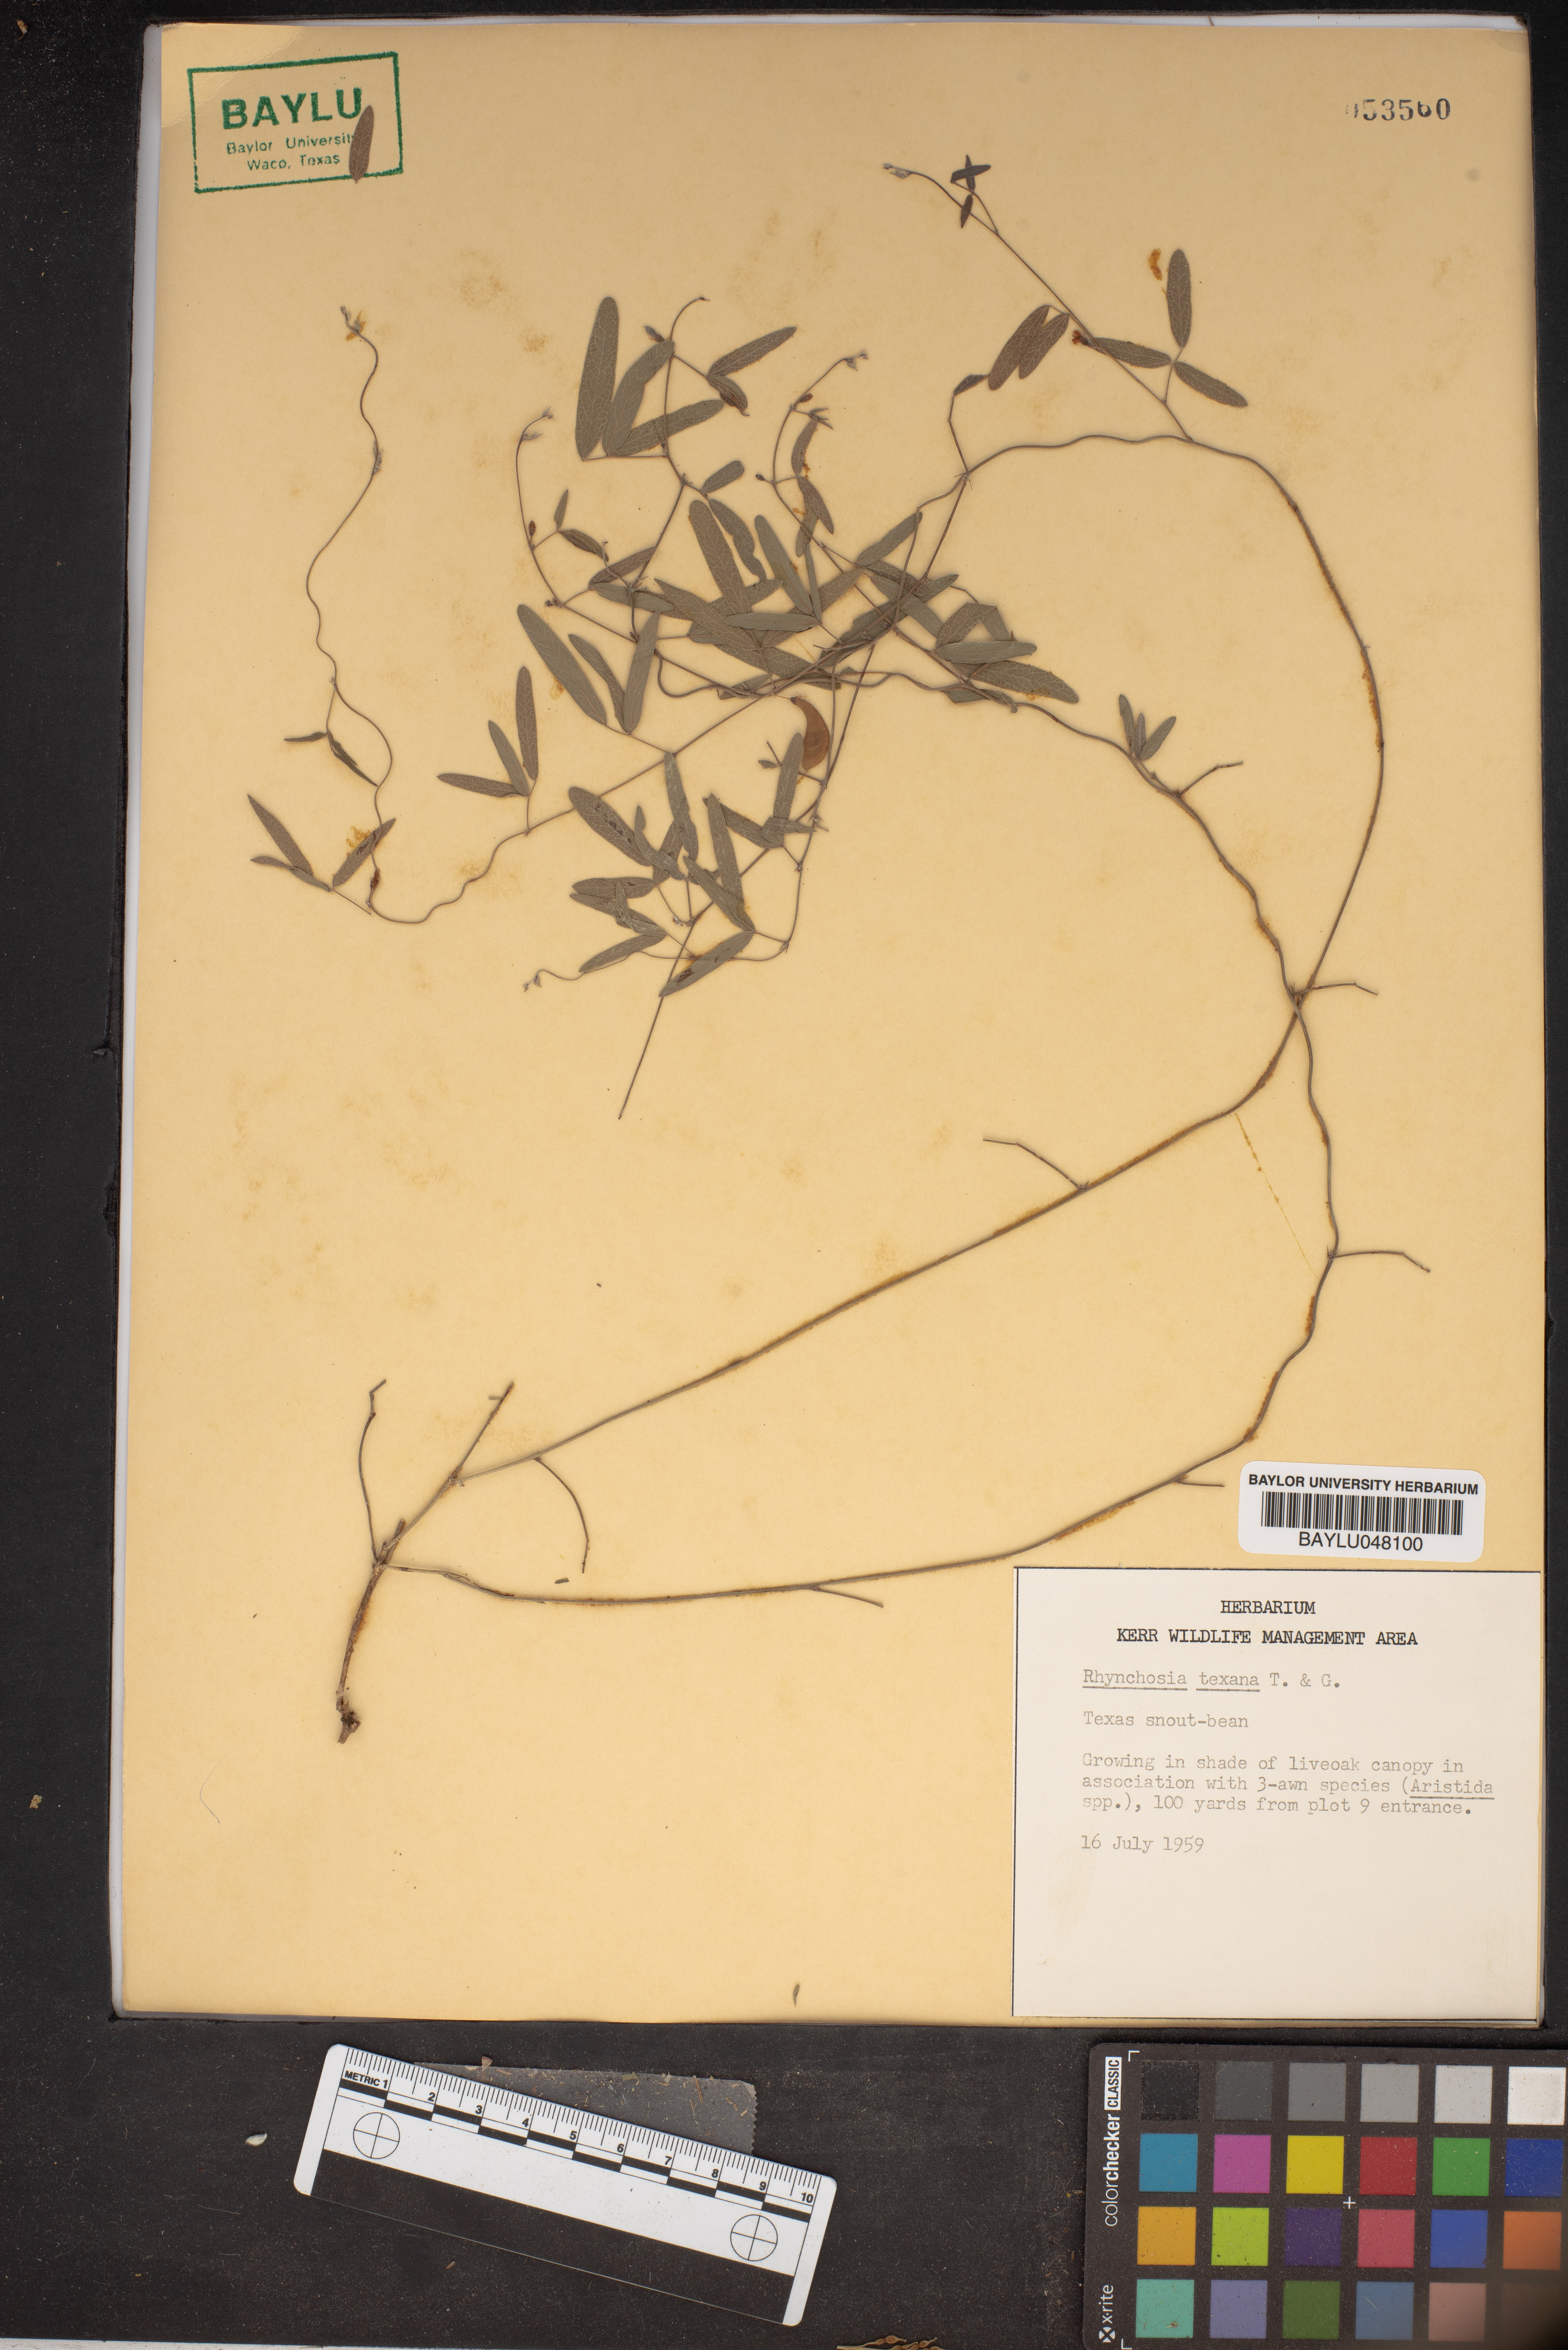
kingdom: Plantae
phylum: Tracheophyta
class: Magnoliopsida
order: Fabales
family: Fabaceae
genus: Rhynchosia
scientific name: Rhynchosia senna
